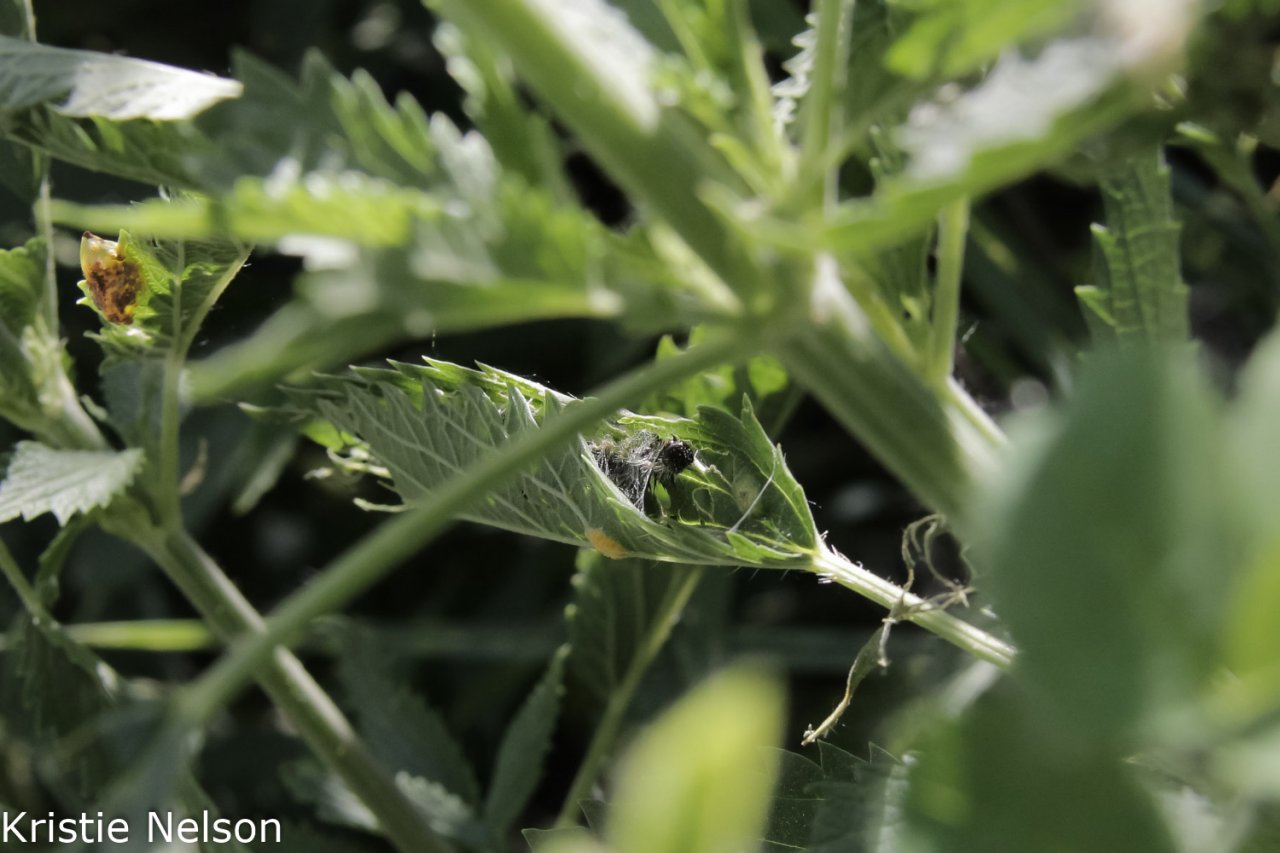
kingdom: Animalia
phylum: Arthropoda
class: Insecta
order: Lepidoptera
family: Nymphalidae
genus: Aglais
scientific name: Aglais milberti
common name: Milbert's Tortoiseshell
